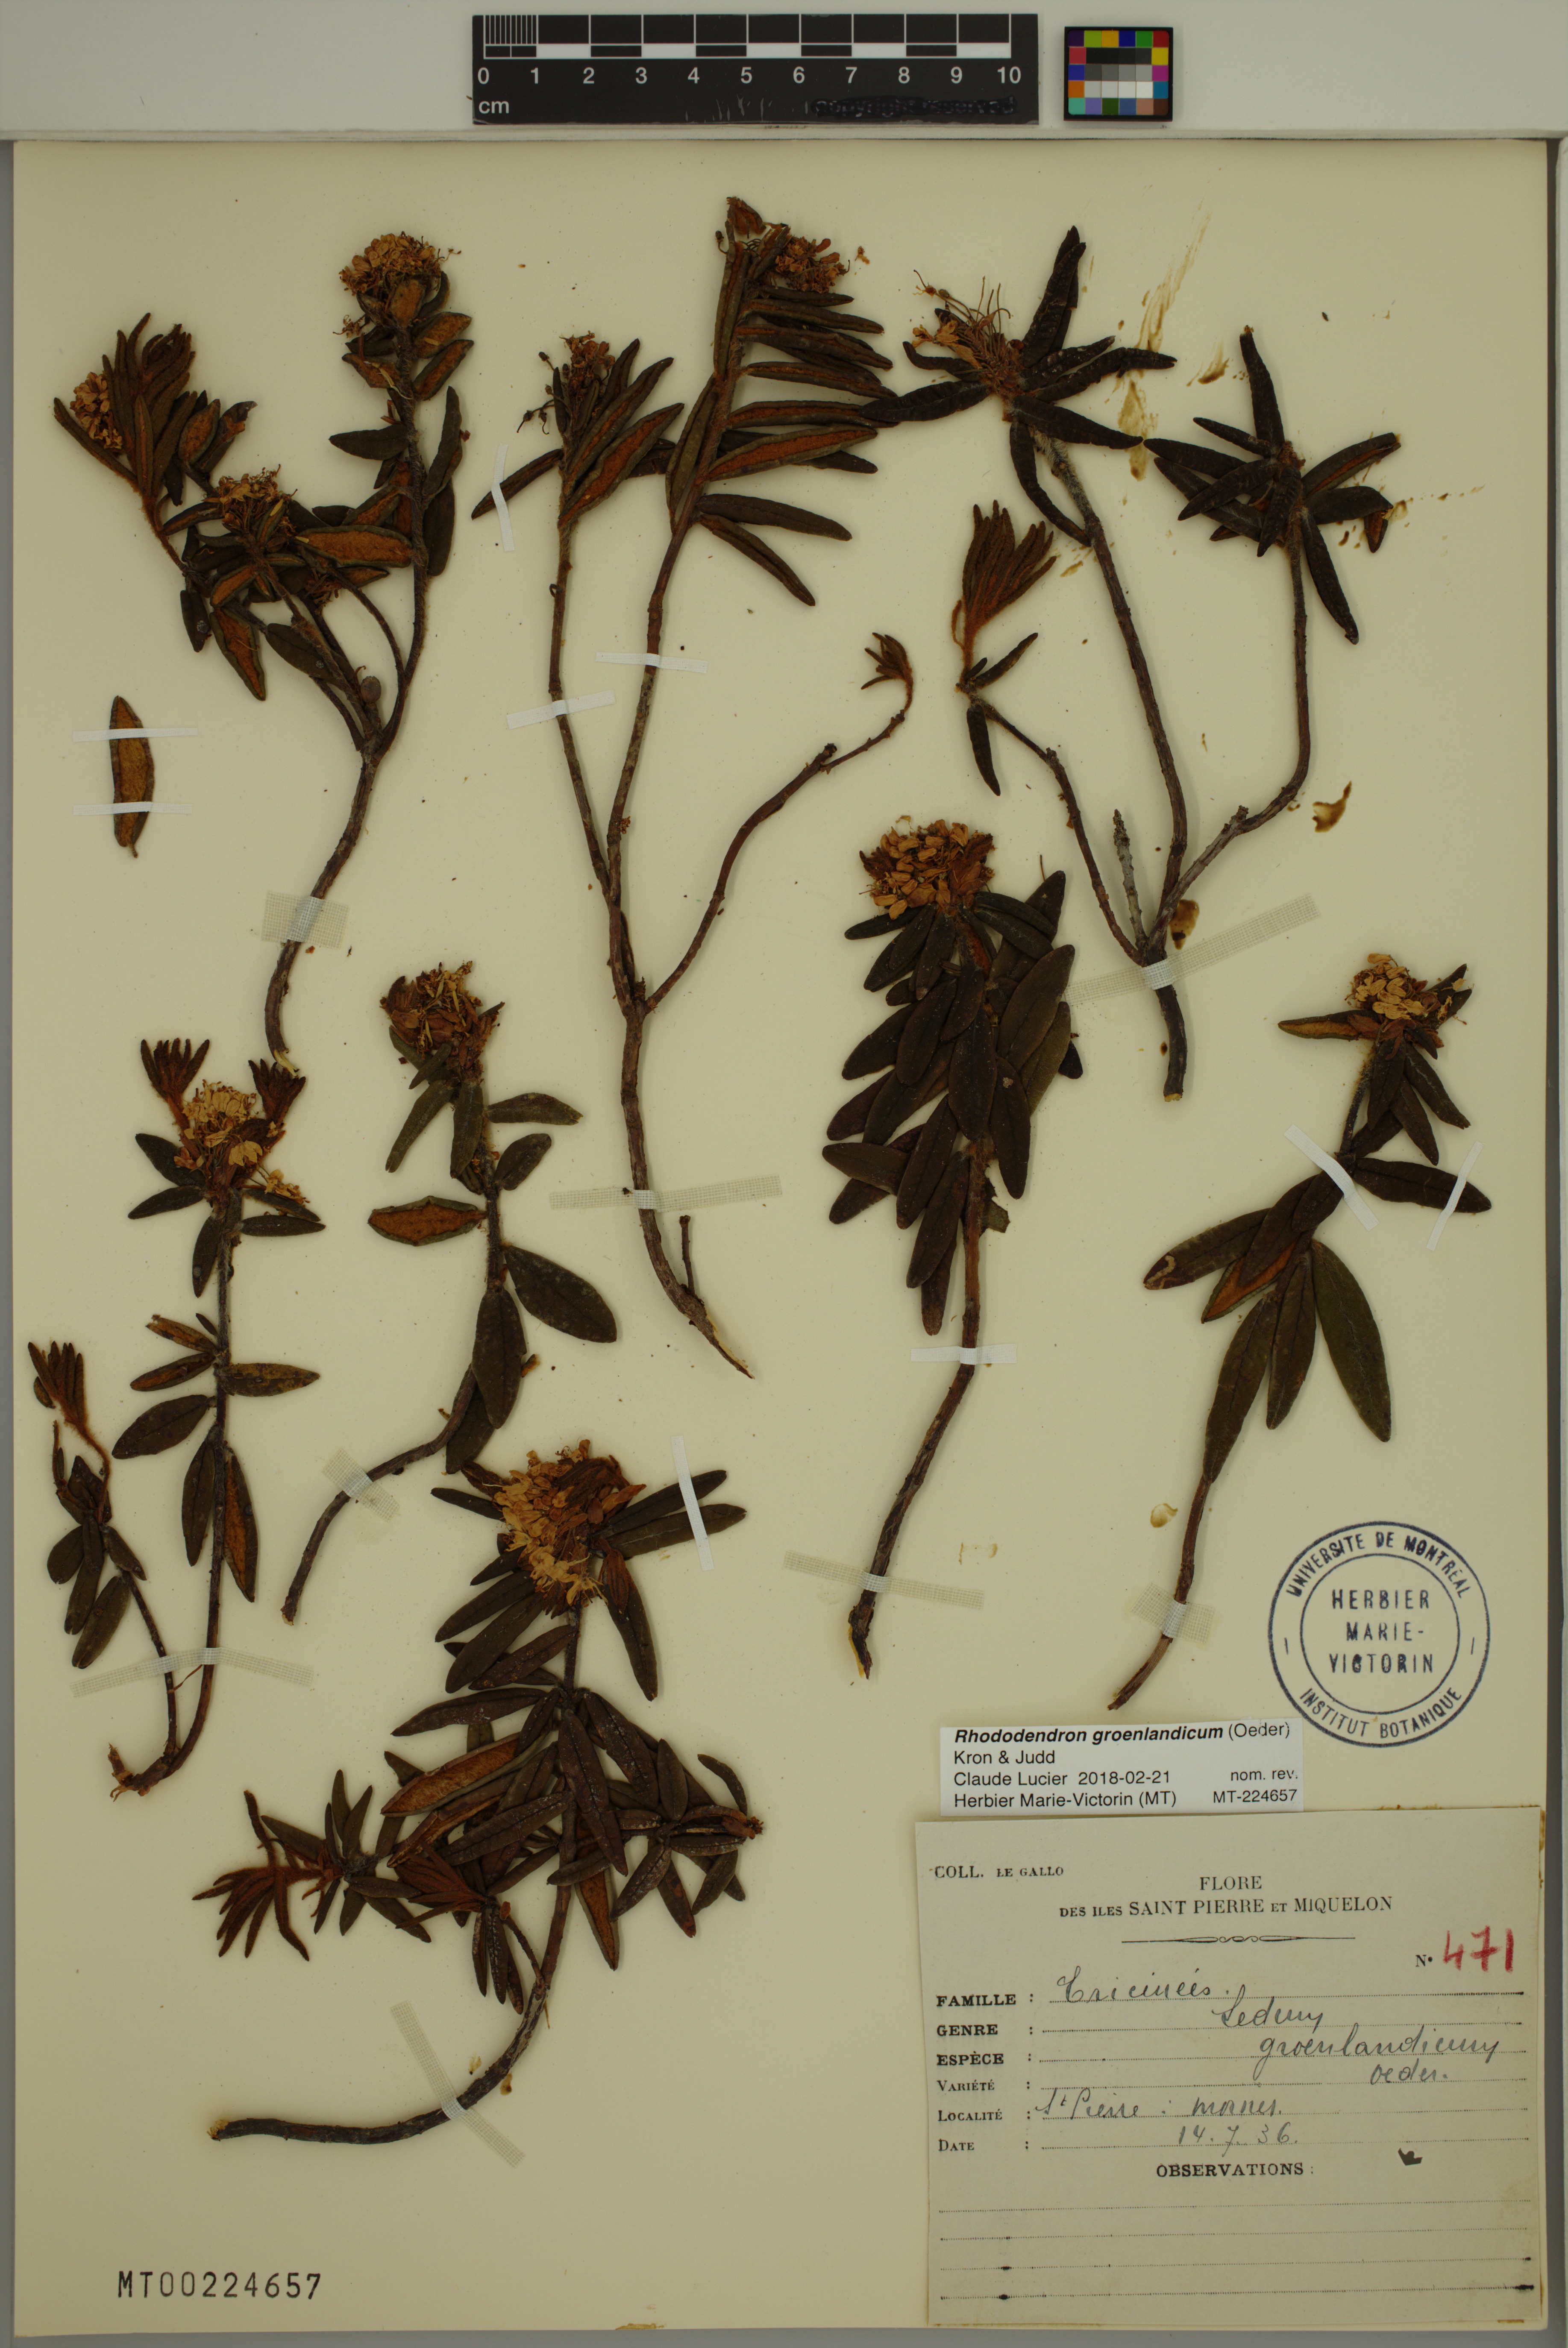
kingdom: Plantae
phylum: Tracheophyta
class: Magnoliopsida
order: Ericales
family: Ericaceae
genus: Rhododendron
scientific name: Rhododendron groenlandicum
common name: Bog labrador tea
